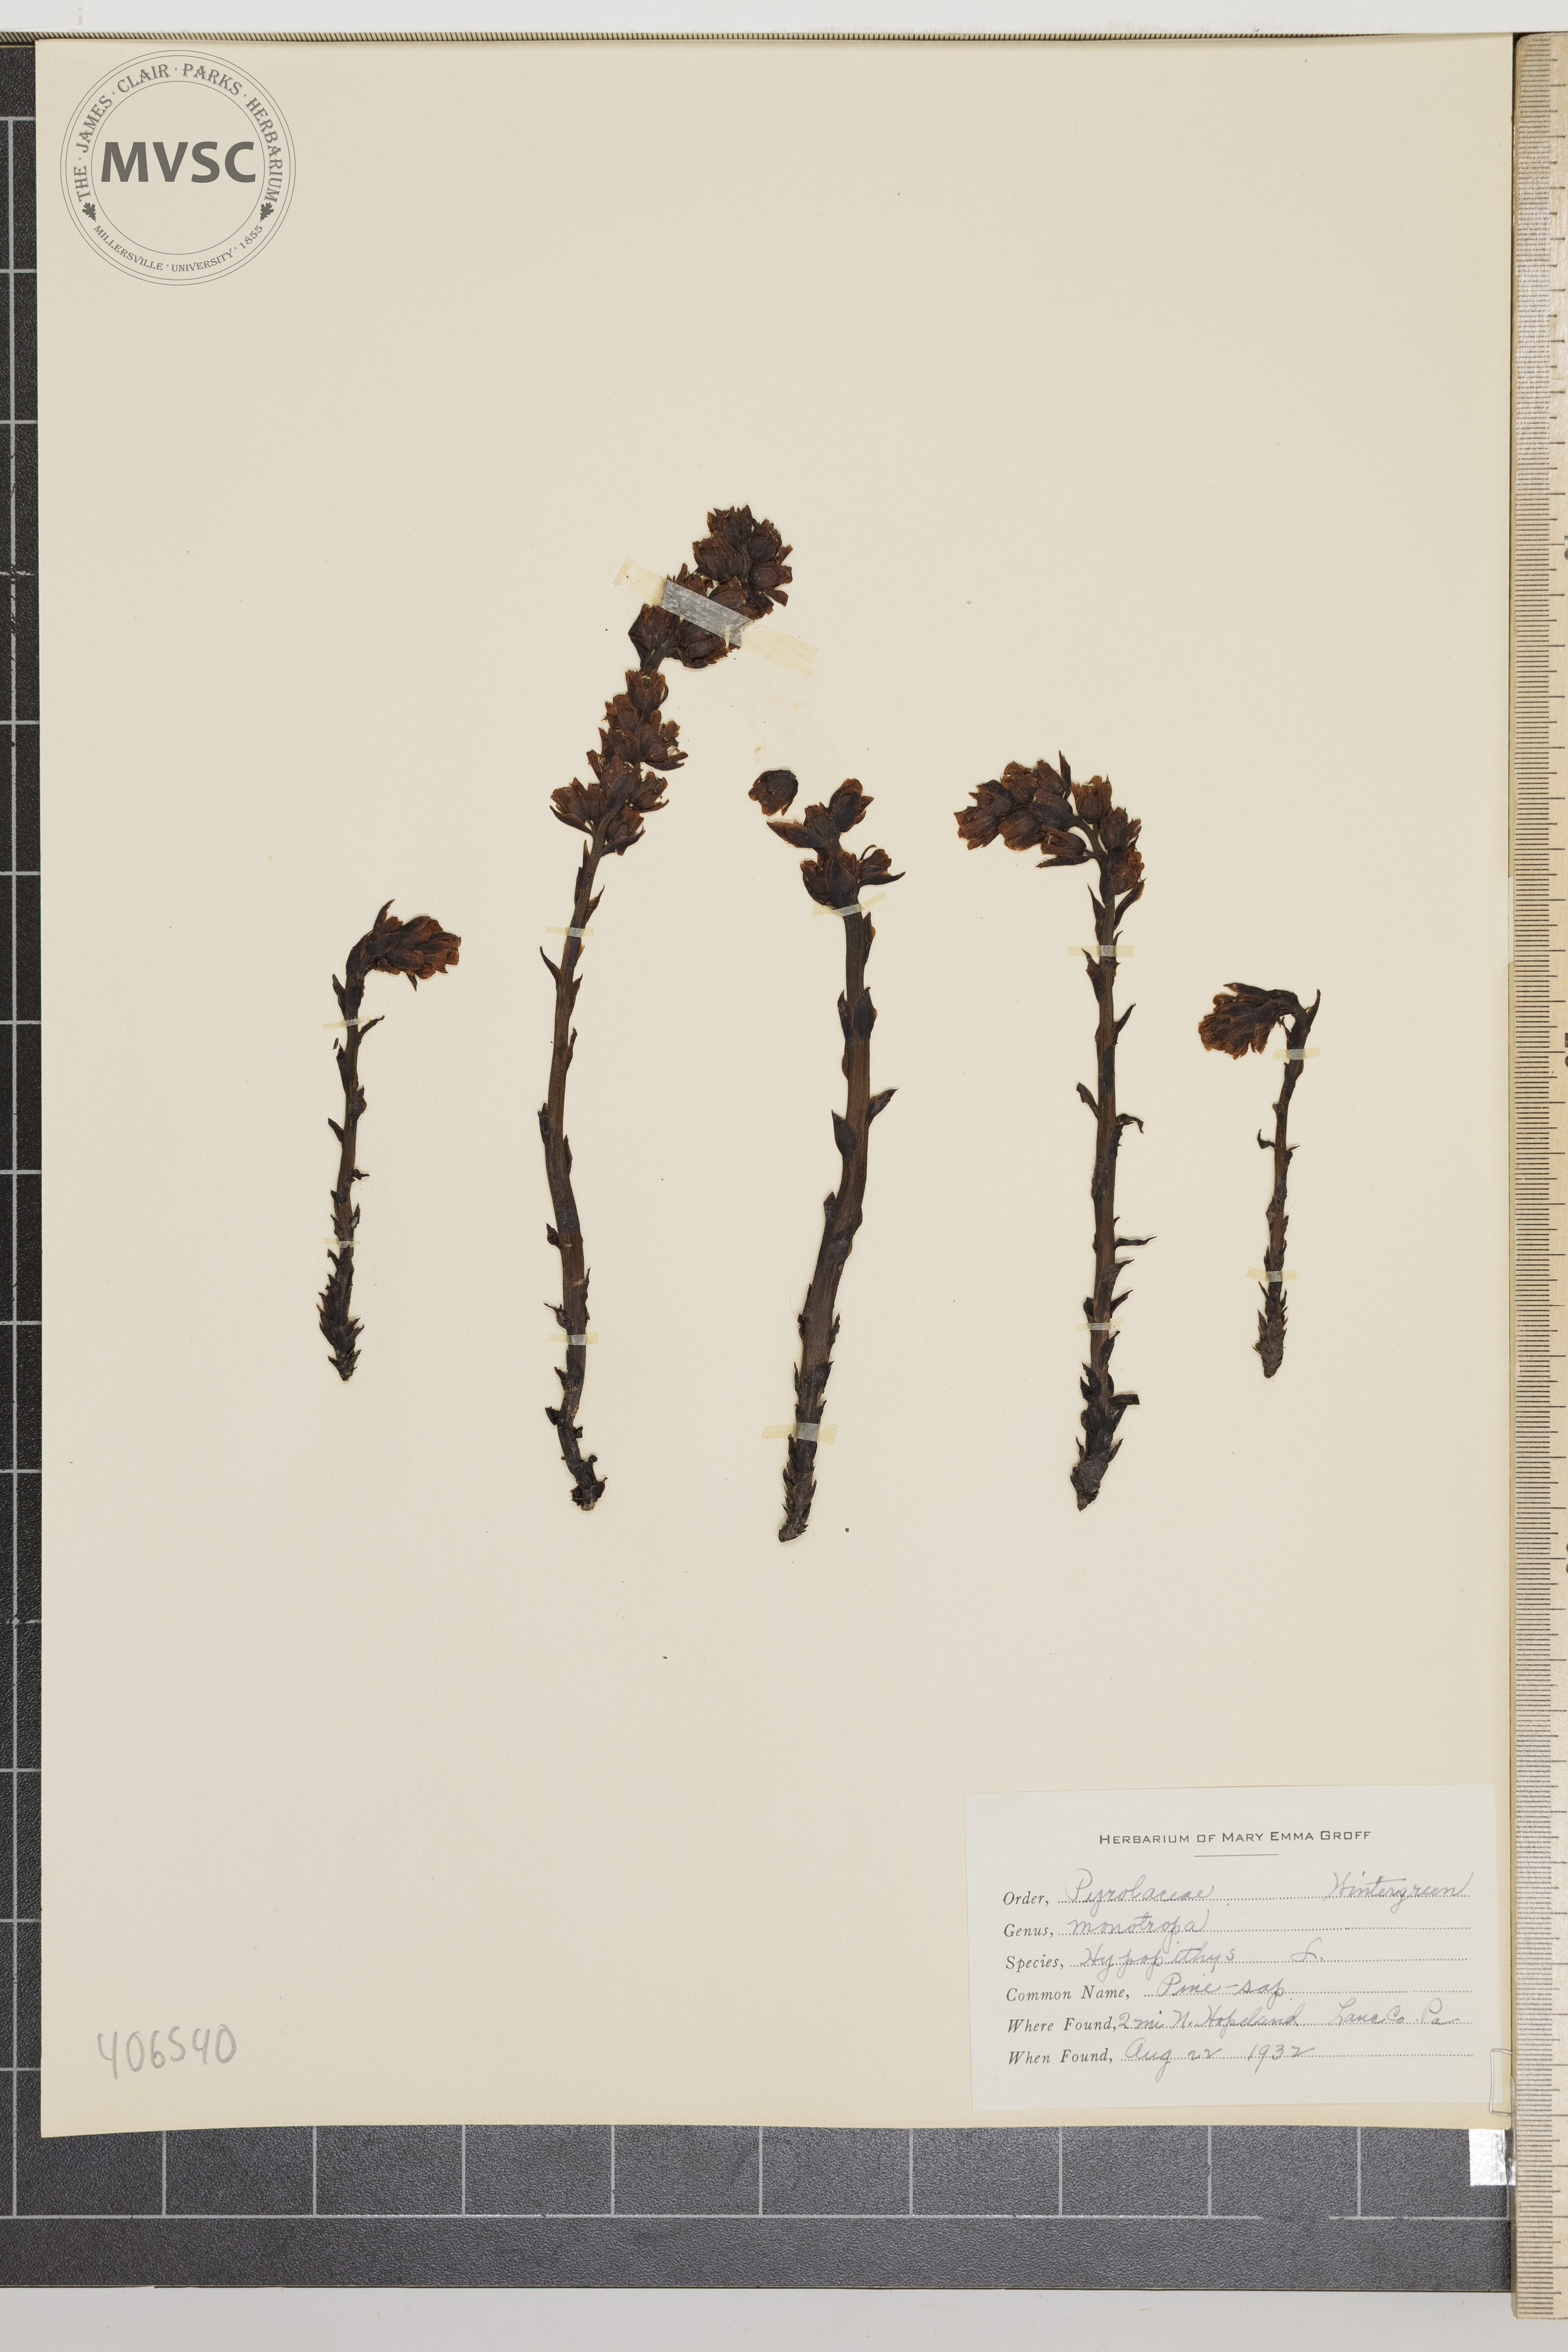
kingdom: Plantae
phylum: Tracheophyta
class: Magnoliopsida
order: Ericales
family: Ericaceae
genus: Hypopitys
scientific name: Hypopitys monotropa
